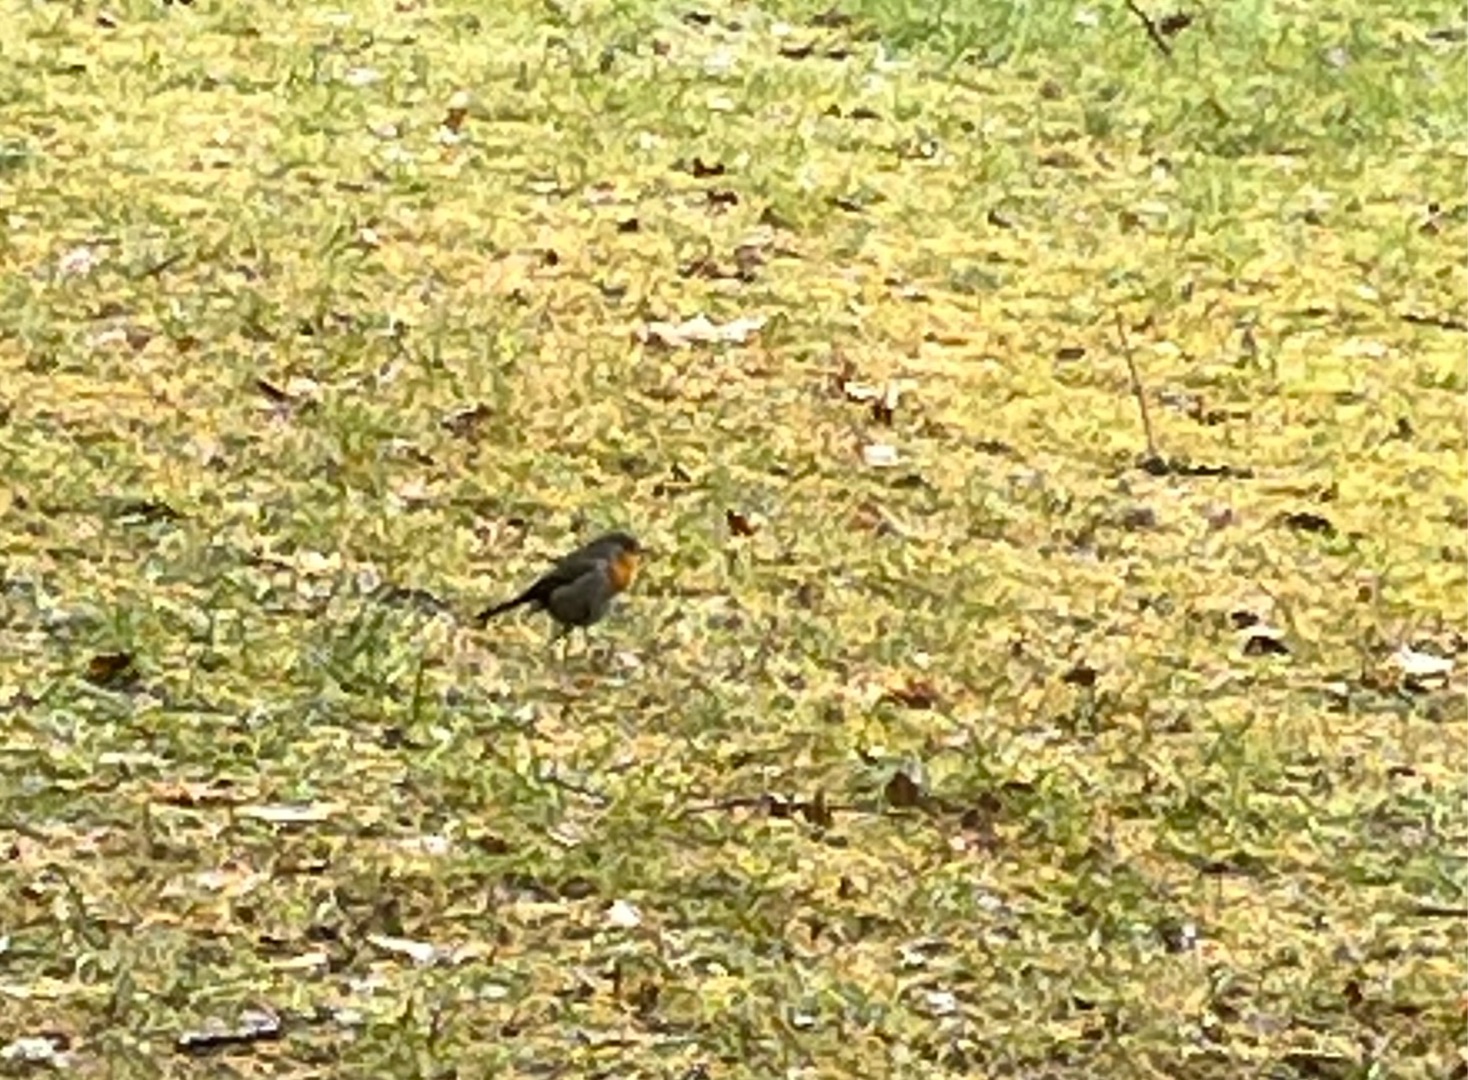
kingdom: Animalia
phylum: Chordata
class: Aves
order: Passeriformes
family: Muscicapidae
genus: Erithacus
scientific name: Erithacus rubecula
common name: Rødhals/rødkælk
